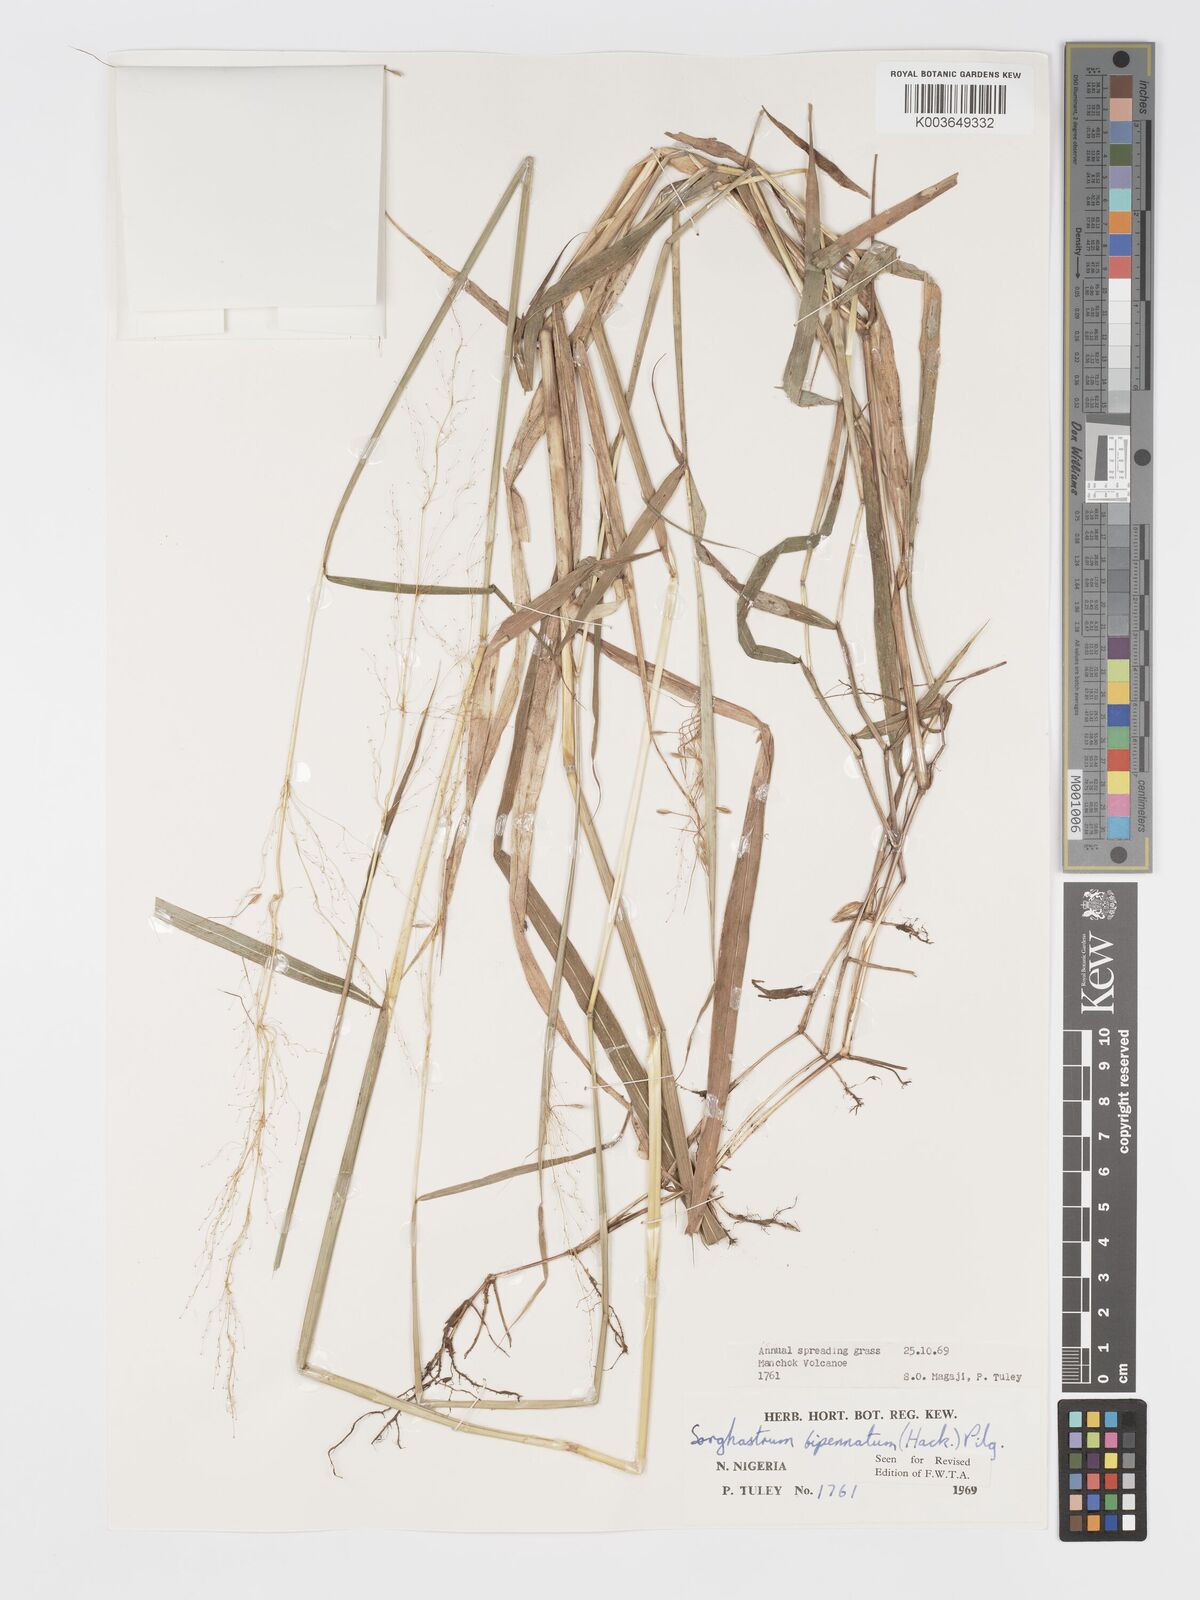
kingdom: Plantae
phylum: Tracheophyta
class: Liliopsida
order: Poales
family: Poaceae
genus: Sorghastrum
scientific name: Sorghastrum incompletum
